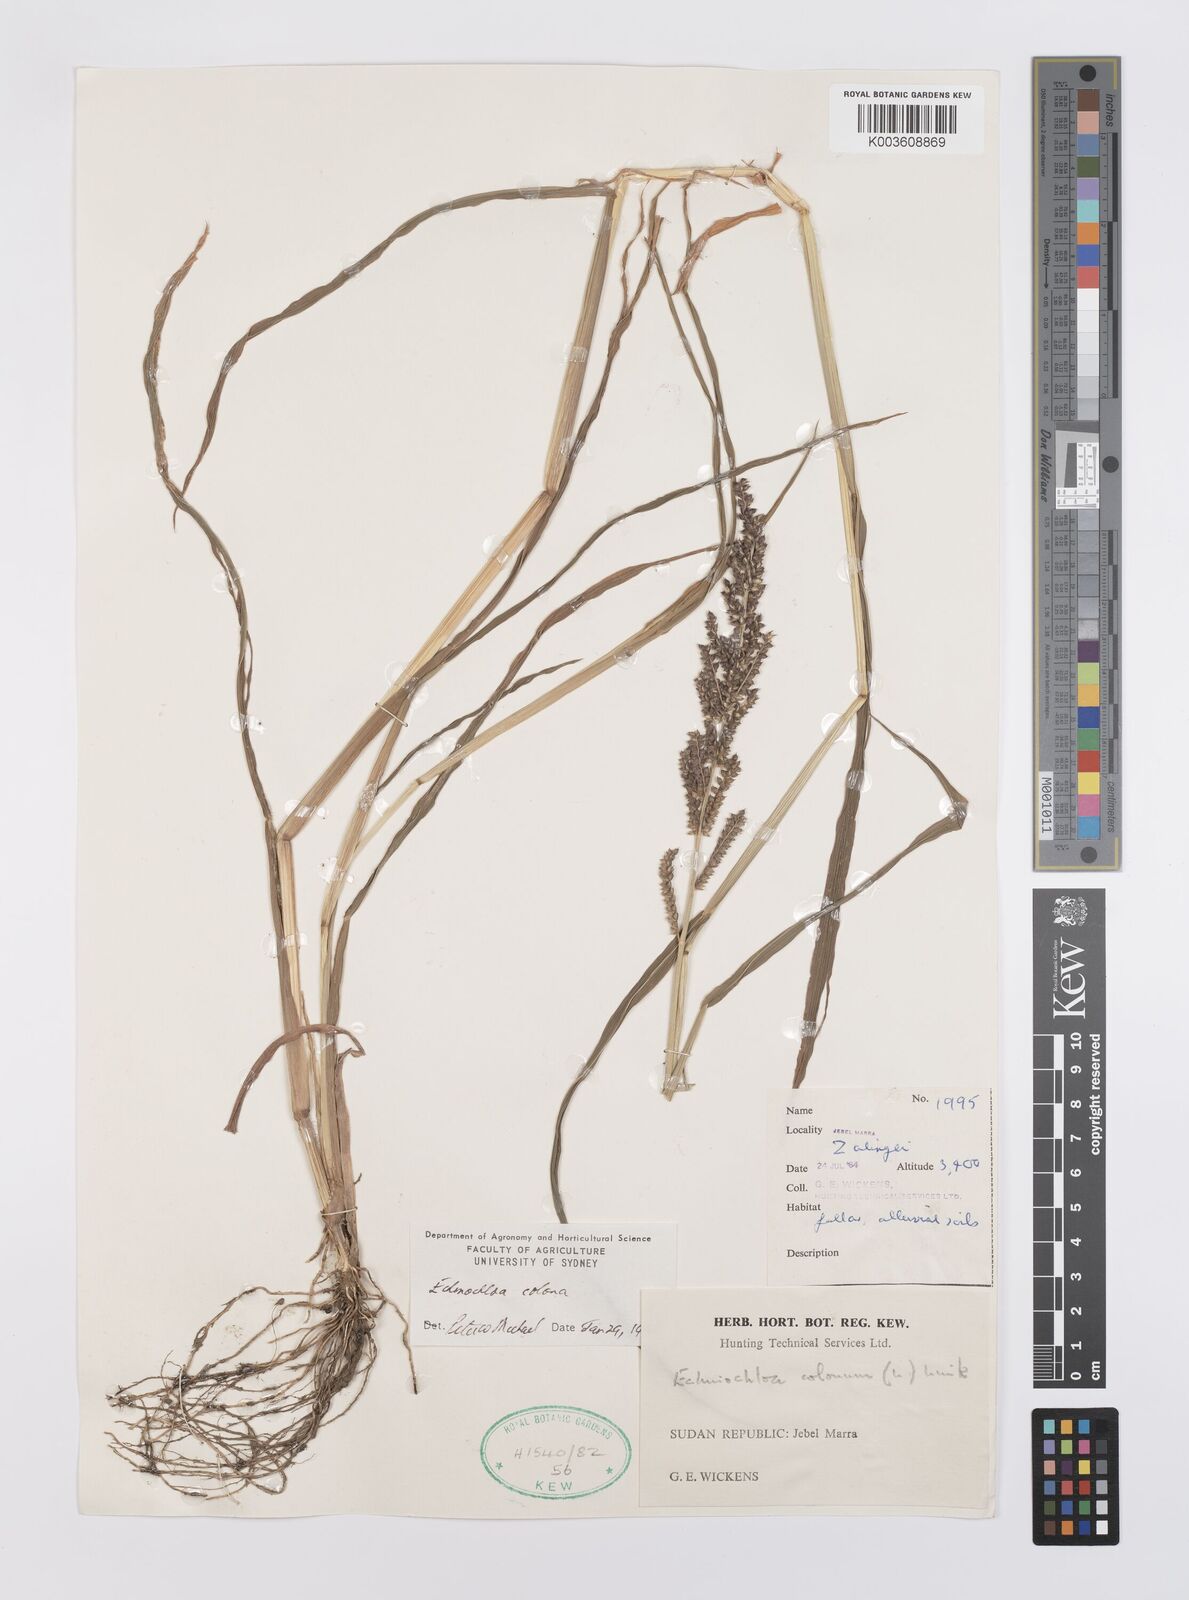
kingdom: Plantae
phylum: Tracheophyta
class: Liliopsida
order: Poales
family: Poaceae
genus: Echinochloa
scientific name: Echinochloa colonum
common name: Jungle rice
